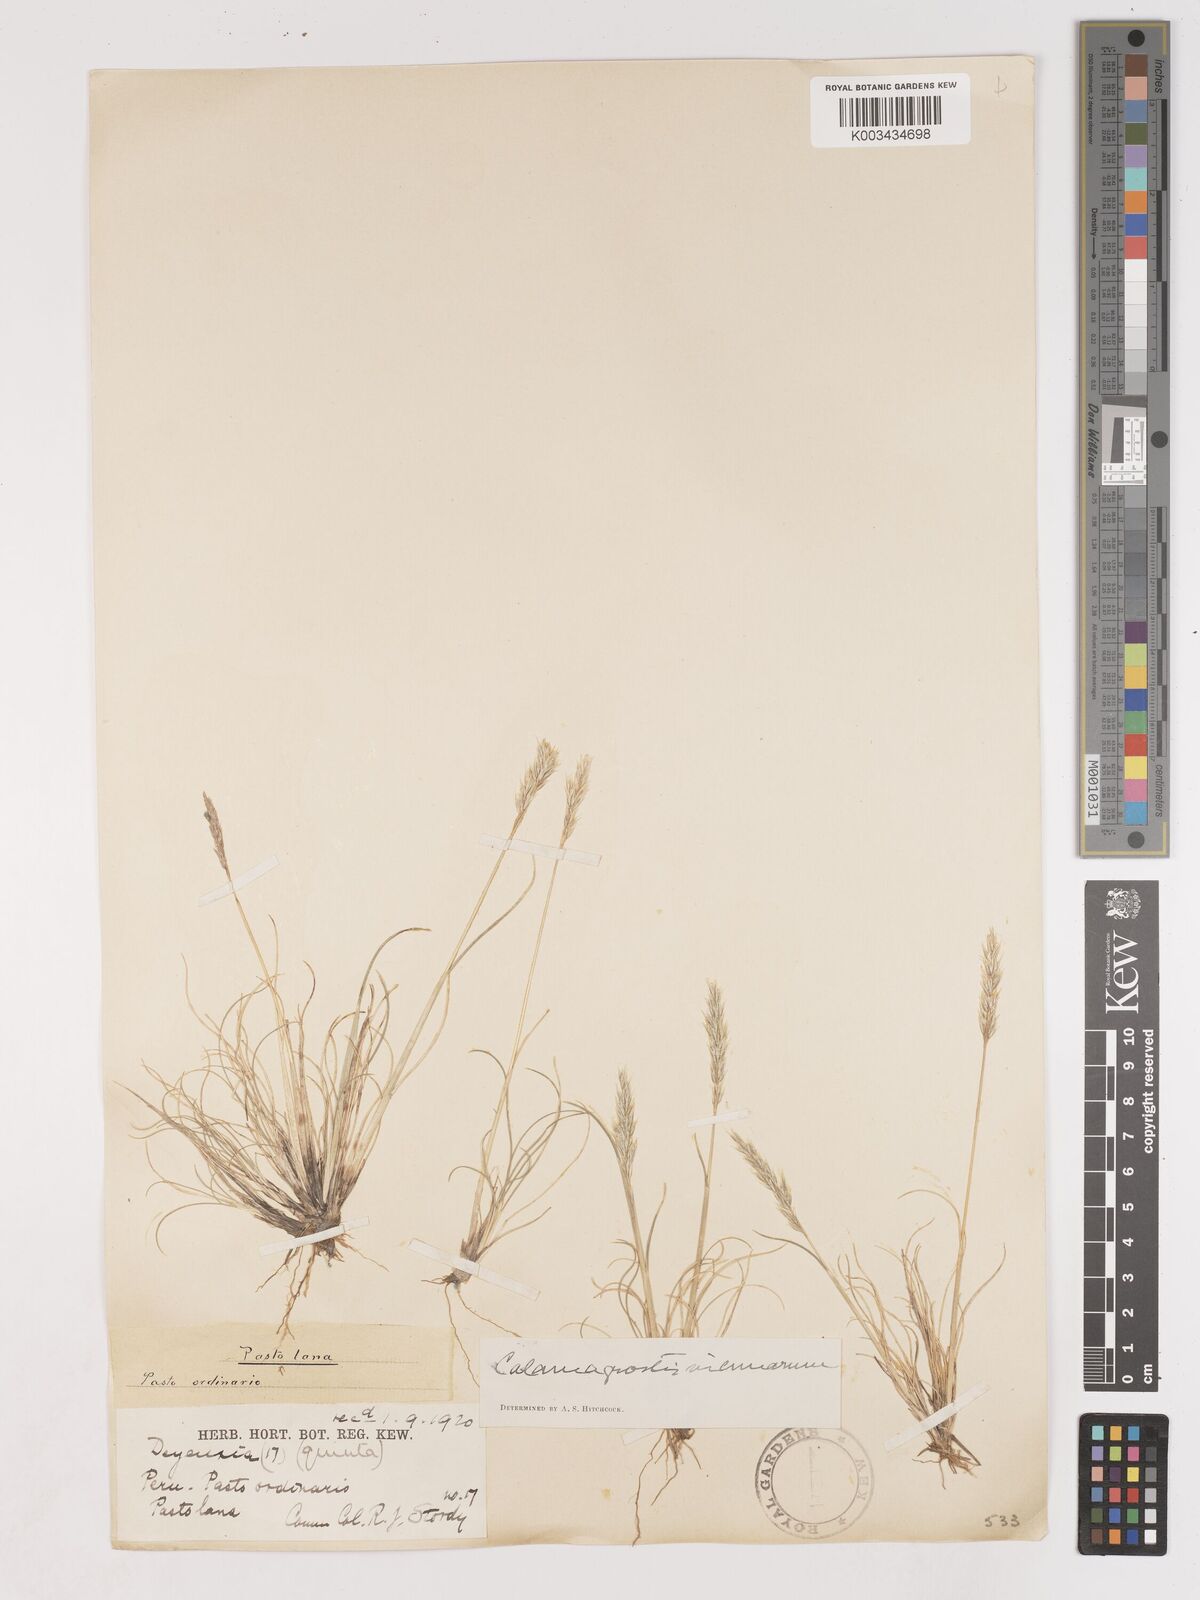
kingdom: Plantae
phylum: Tracheophyta
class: Liliopsida
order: Poales
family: Poaceae
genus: Cinnagrostis
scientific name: Cinnagrostis vicunarum
